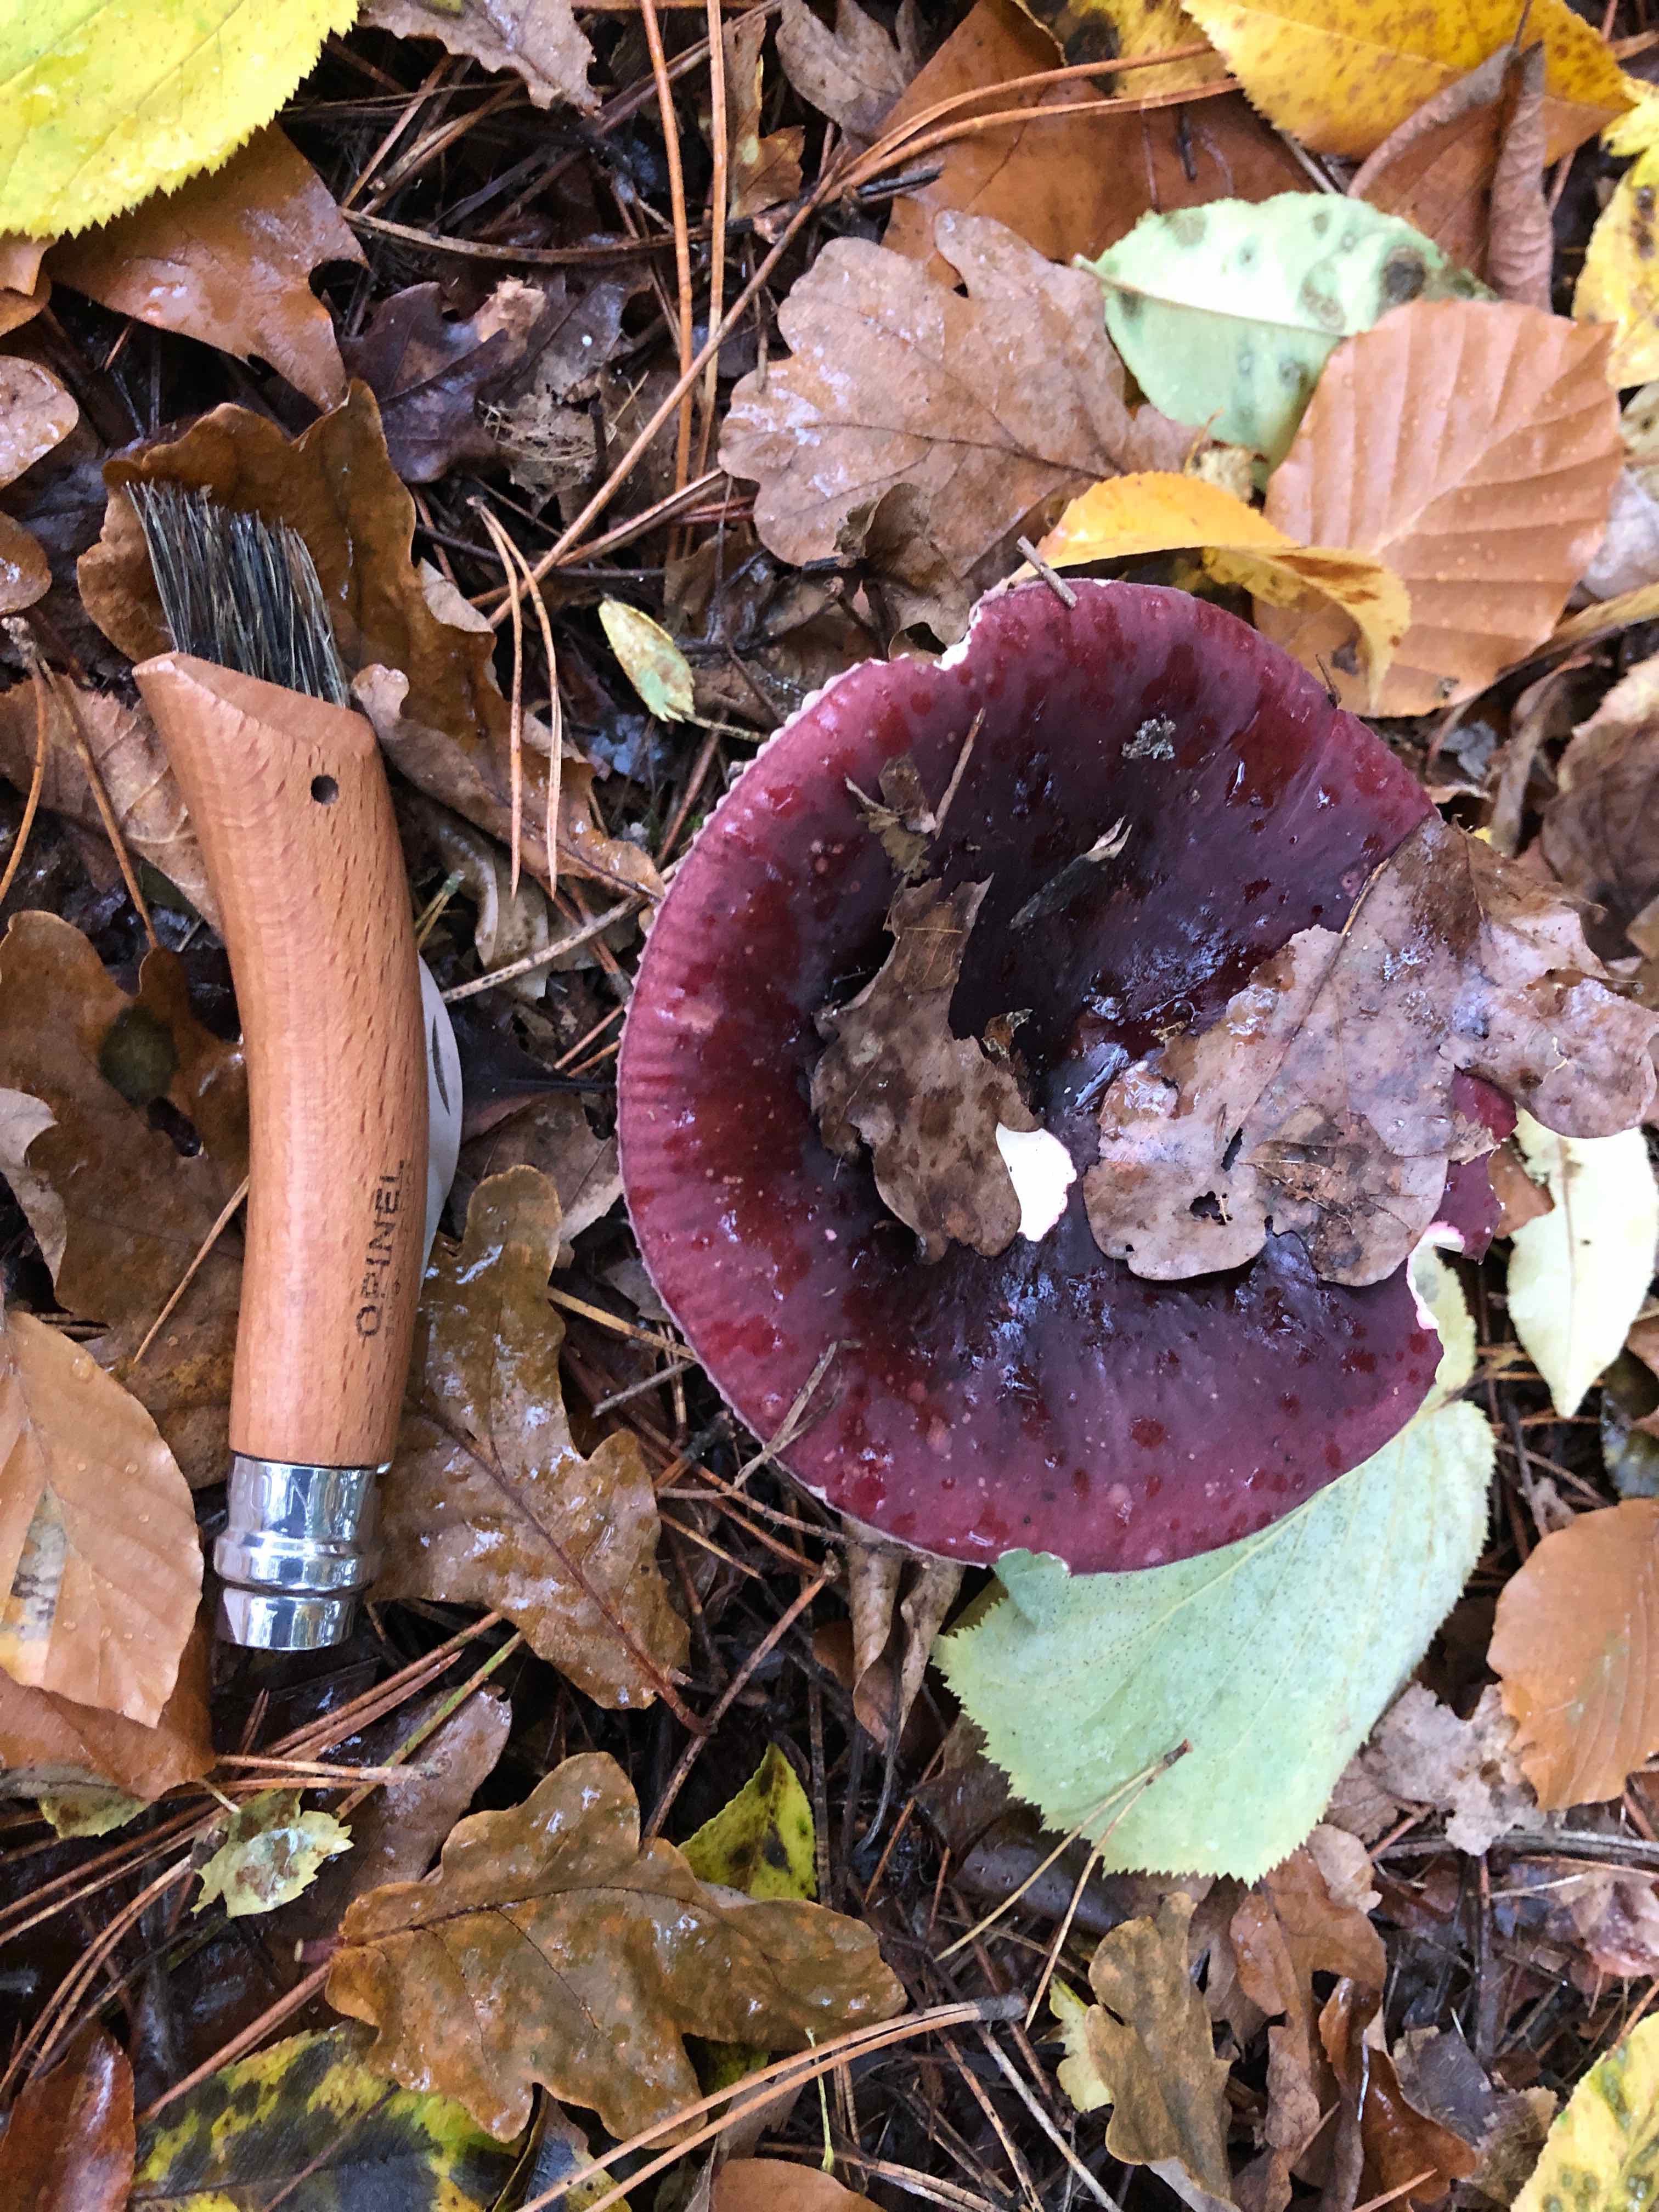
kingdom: Fungi
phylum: Basidiomycota
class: Agaricomycetes
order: Russulales
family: Russulaceae
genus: Russula
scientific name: Russula xerampelina
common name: hummer-skørhat
